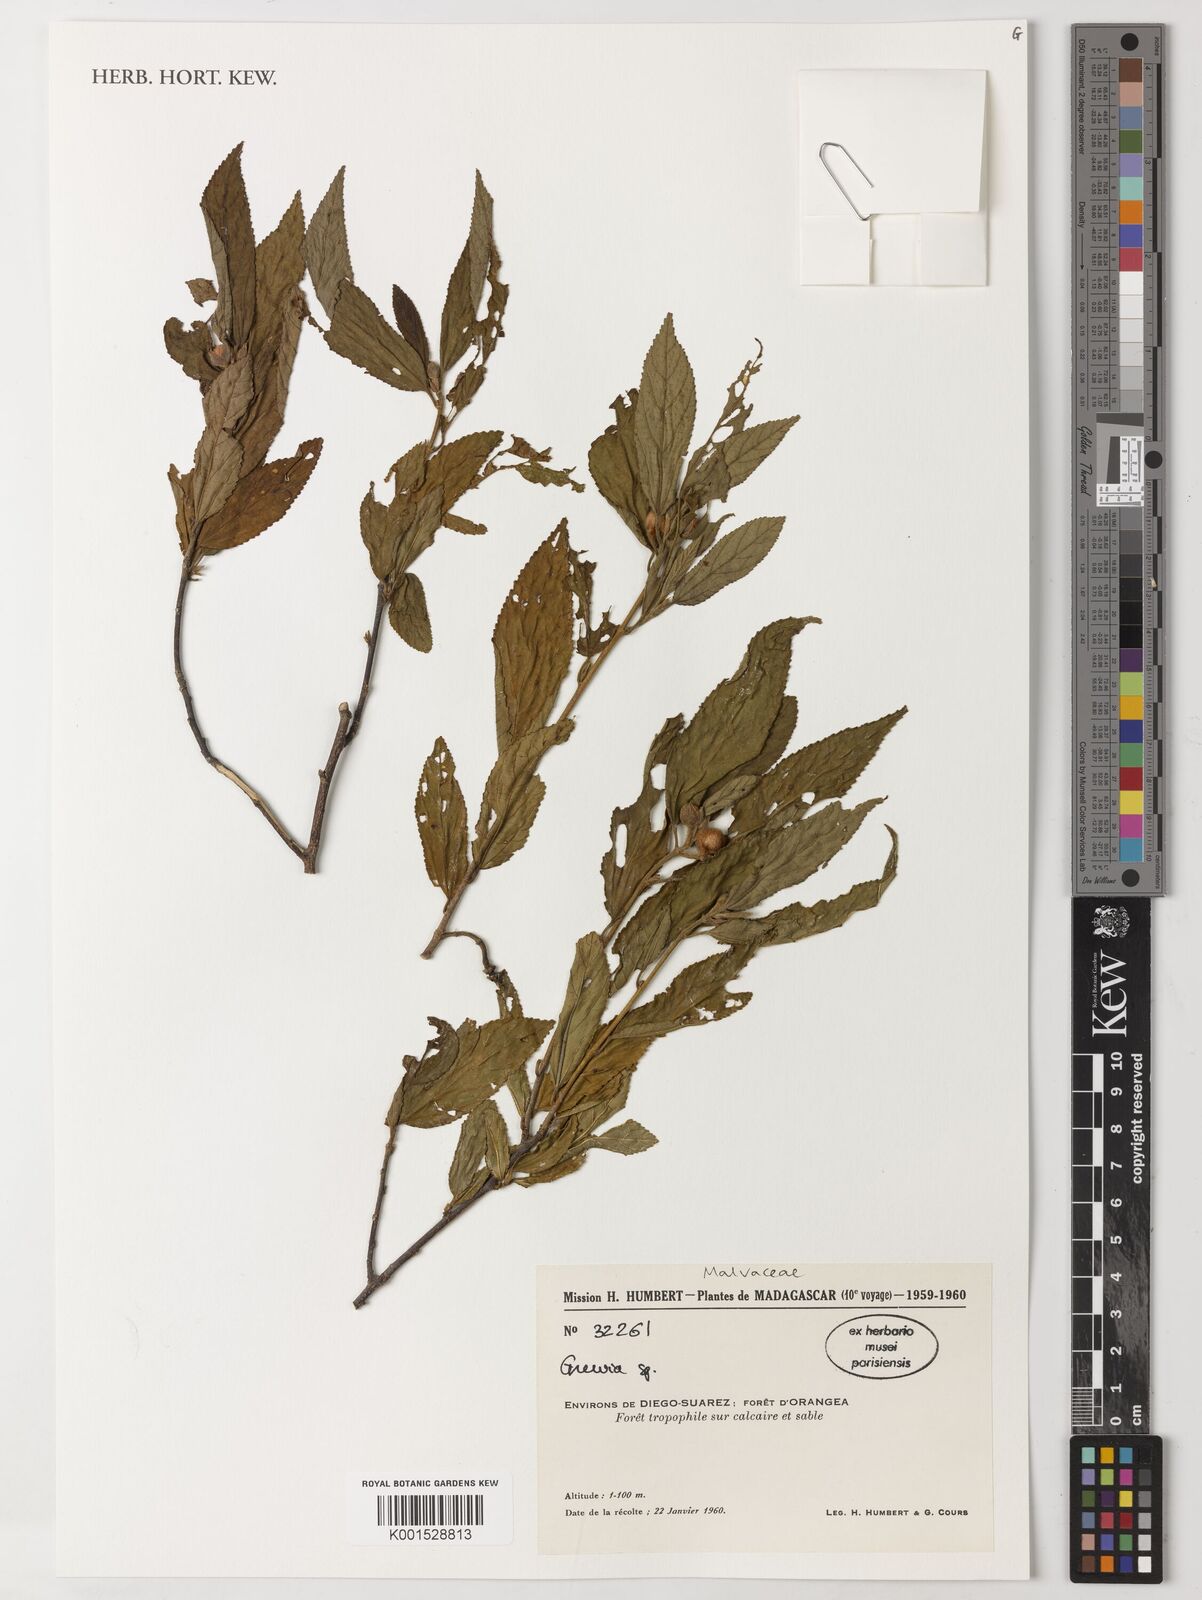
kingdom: Plantae
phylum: Tracheophyta
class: Magnoliopsida
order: Malvales
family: Malvaceae
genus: Grewia
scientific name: Grewia
